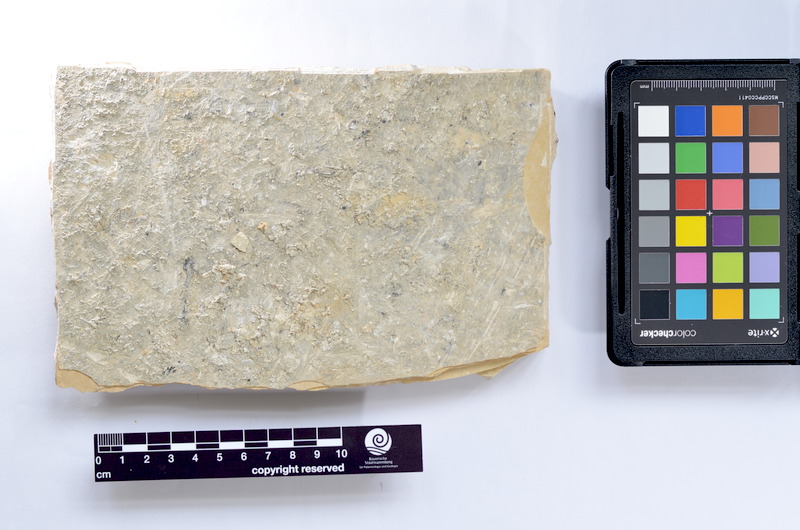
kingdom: Animalia
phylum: Chordata
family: Ascalaboidae
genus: Tharsis
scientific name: Tharsis dubius
